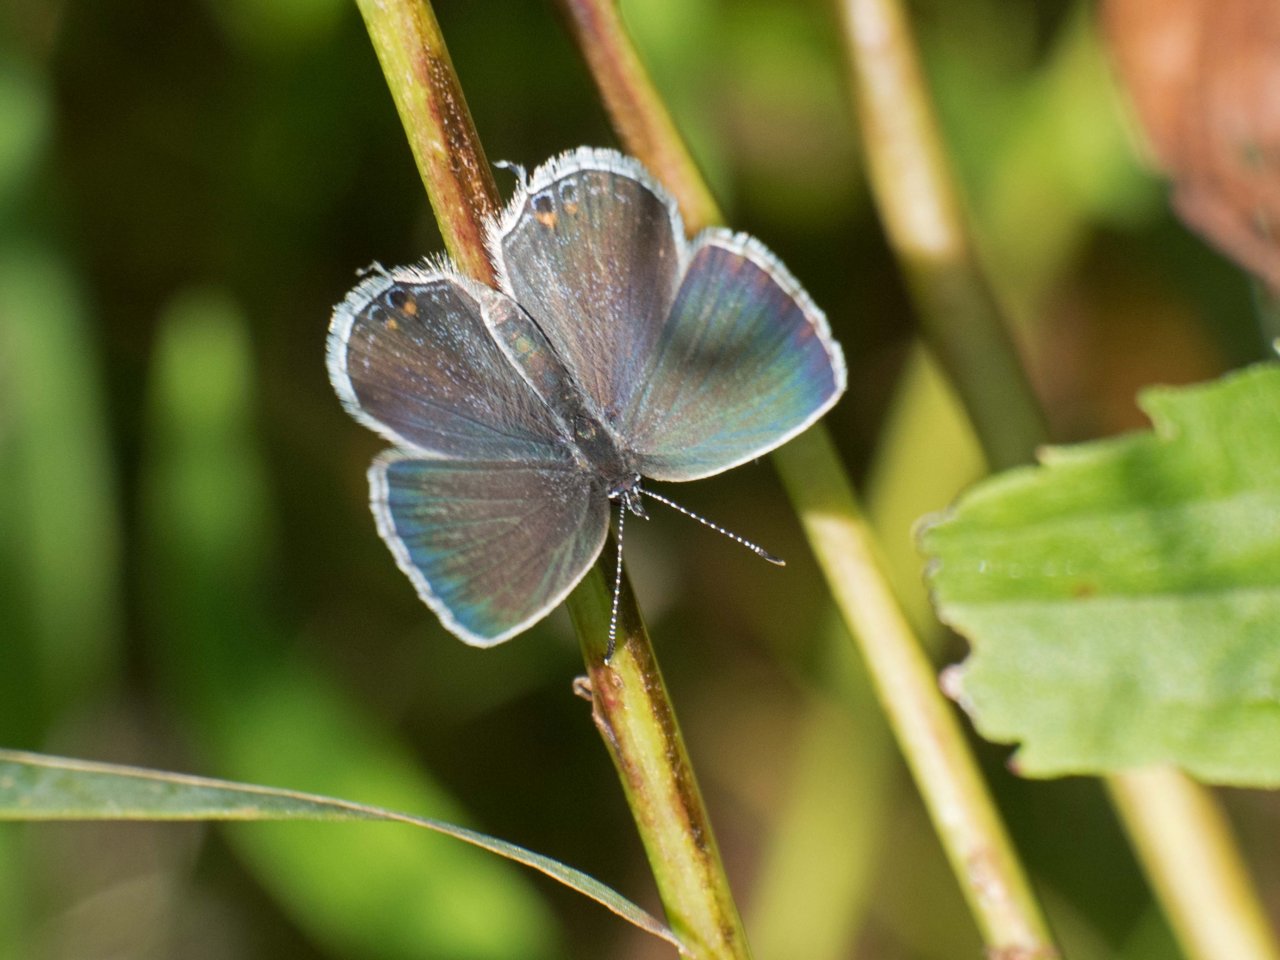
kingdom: Animalia
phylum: Arthropoda
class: Insecta
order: Lepidoptera
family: Lycaenidae
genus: Elkalyce
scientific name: Elkalyce comyntas
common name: Eastern Tailed-Blue
